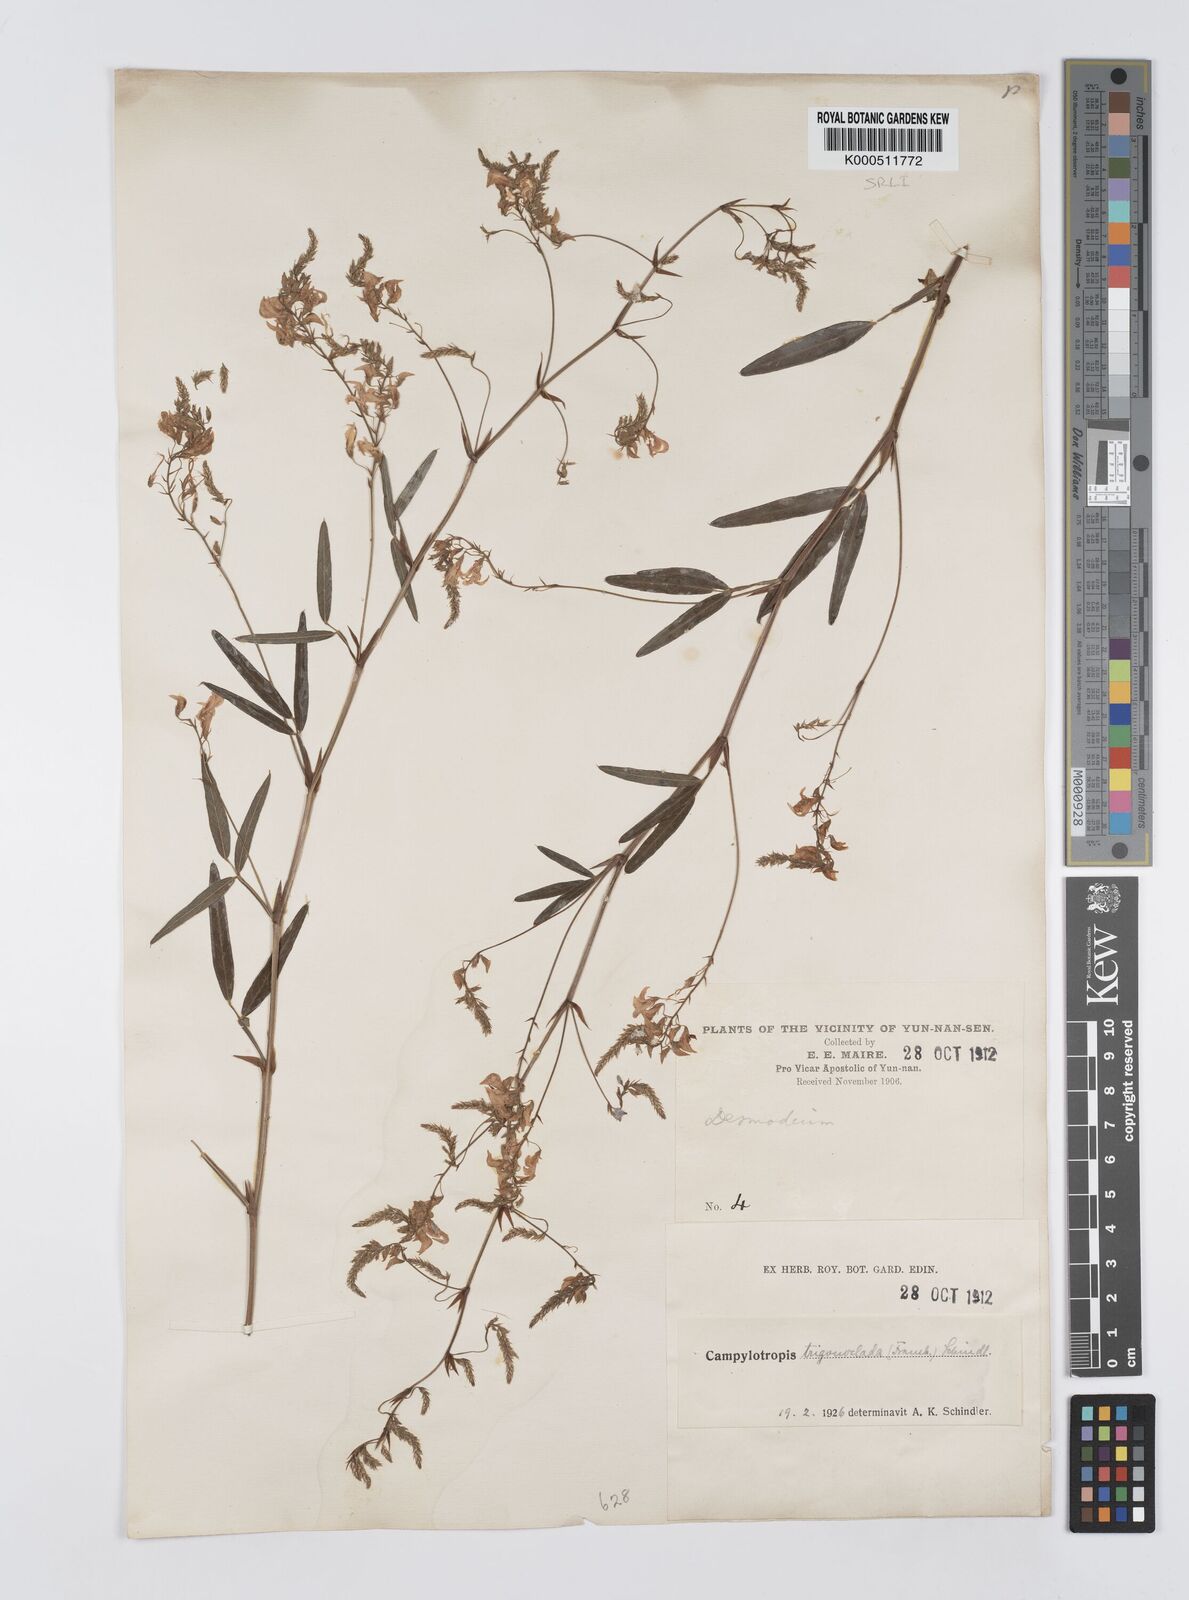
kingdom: Plantae
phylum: Tracheophyta
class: Magnoliopsida
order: Fabales
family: Fabaceae
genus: Campylotropis
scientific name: Campylotropis trigonoclada
